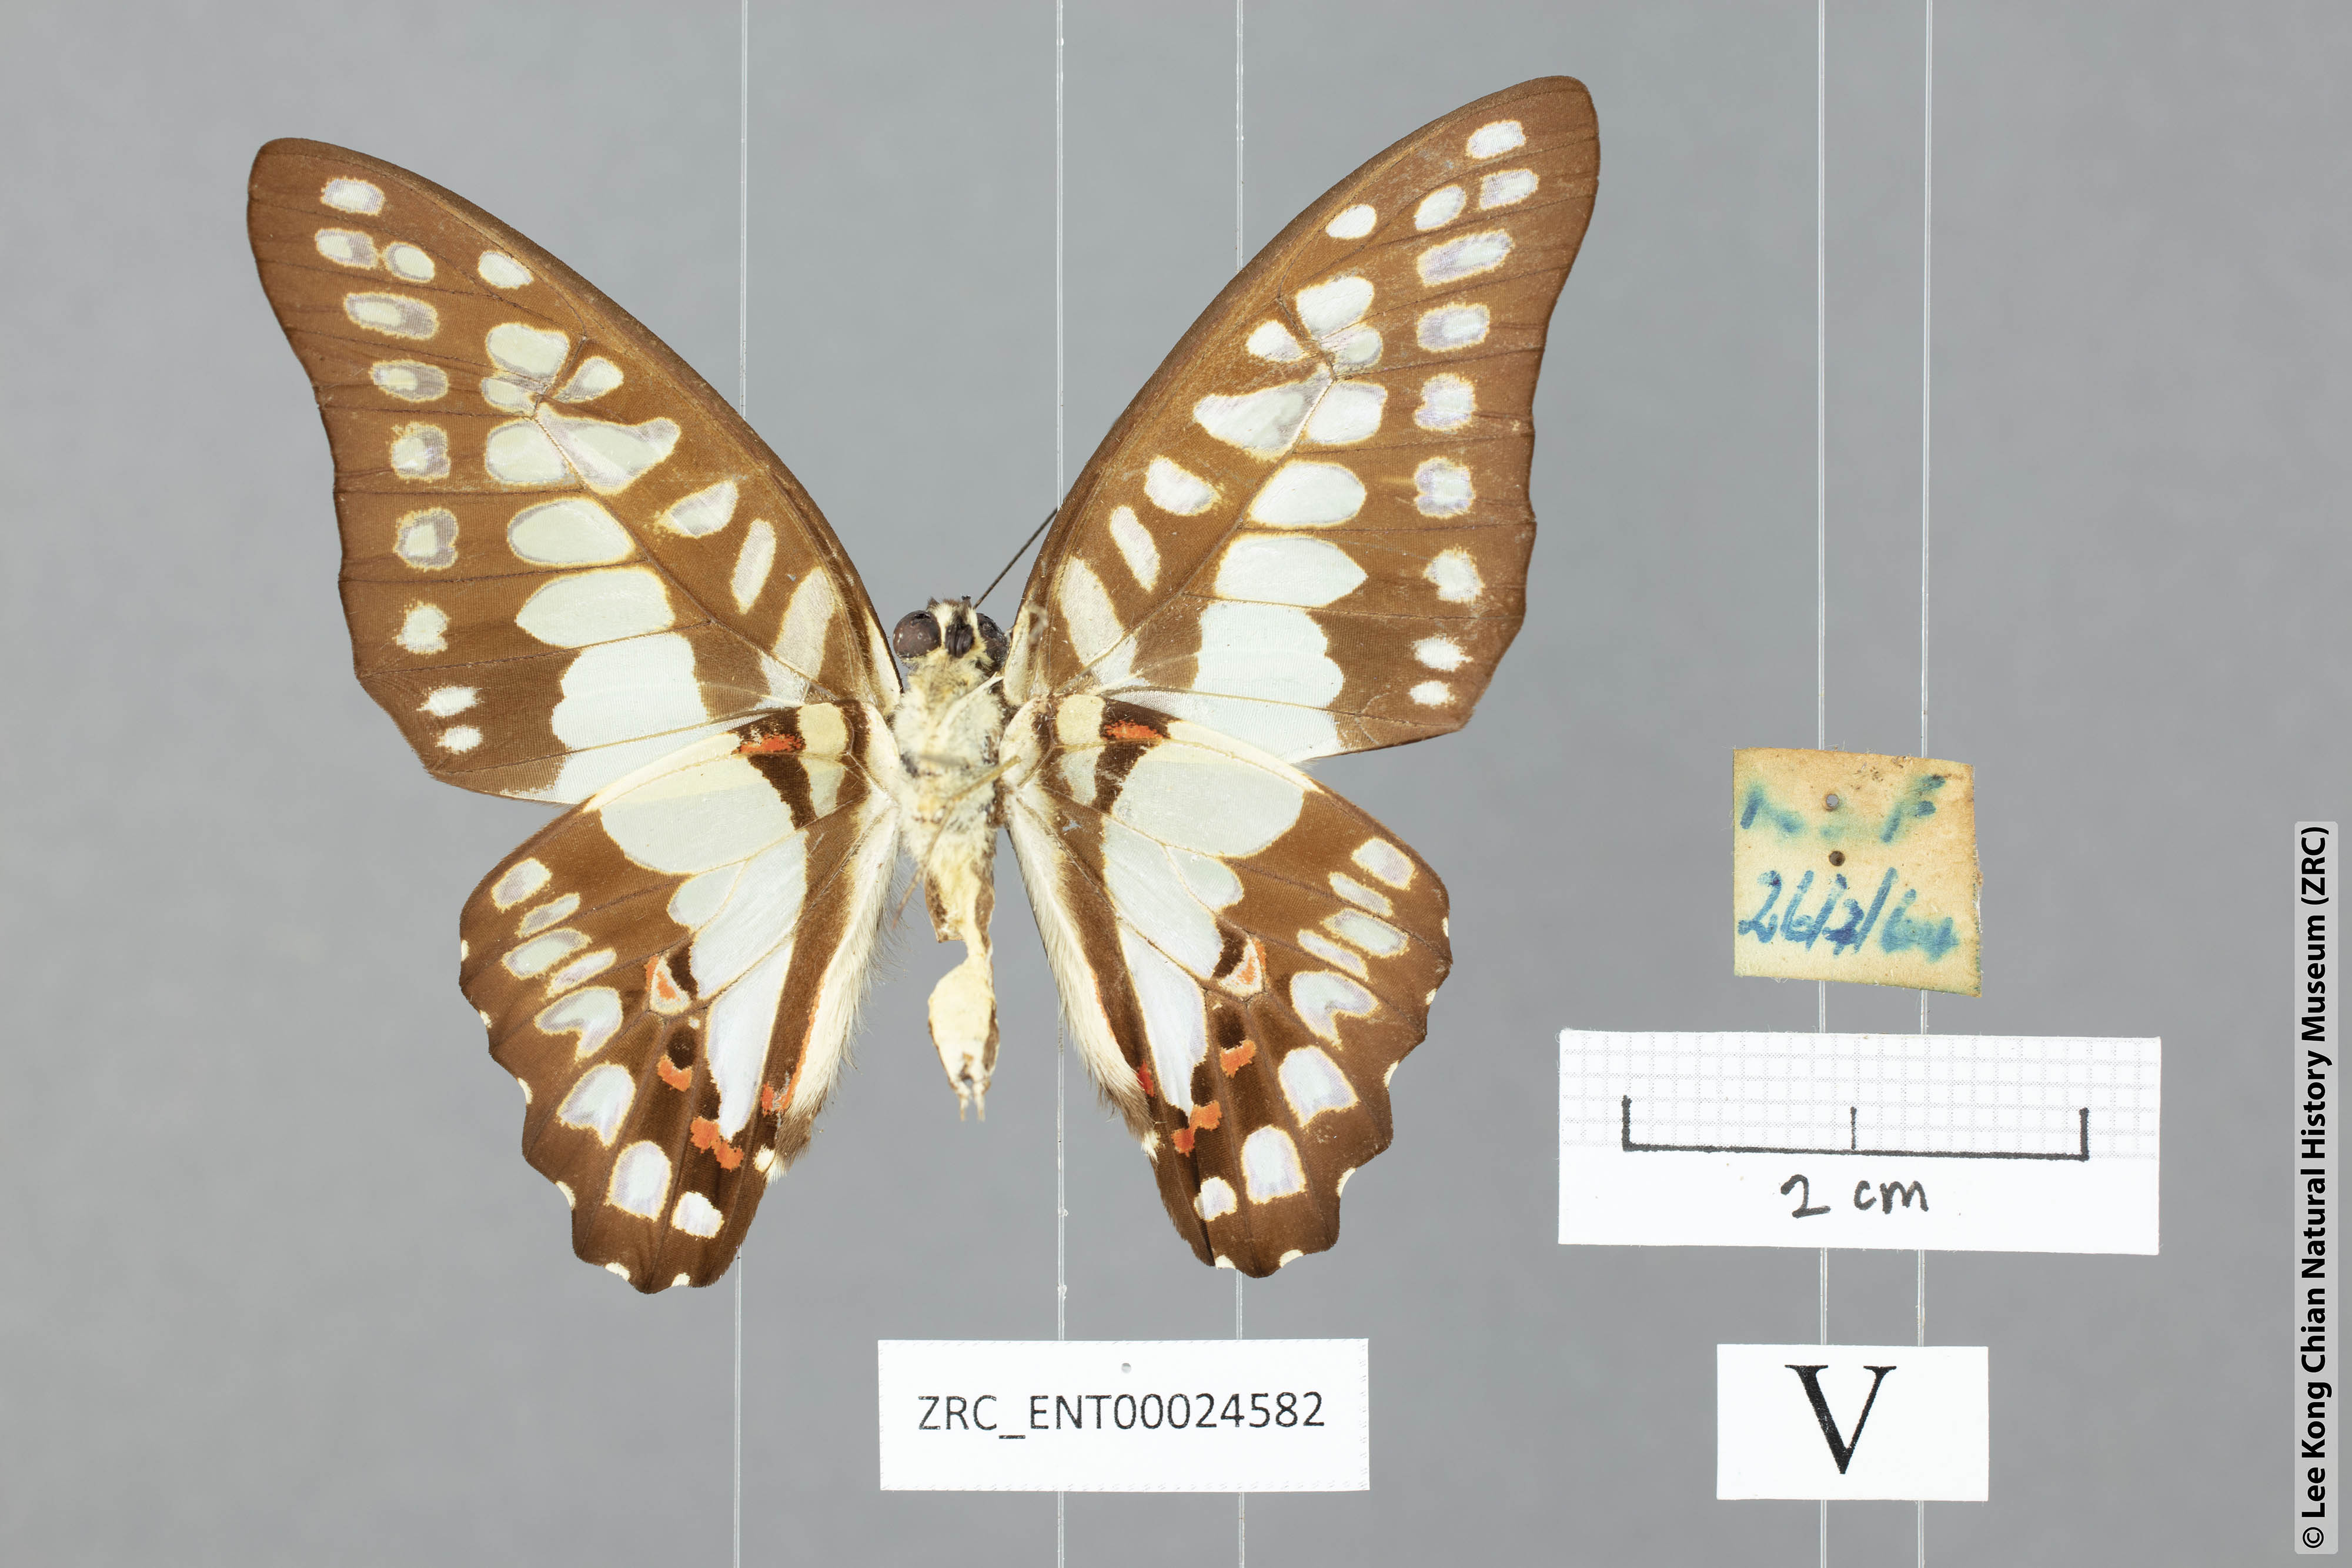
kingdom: Animalia
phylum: Arthropoda
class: Insecta
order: Lepidoptera
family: Papilionidae
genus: Graphium
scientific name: Graphium eurypylus
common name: Great jay
